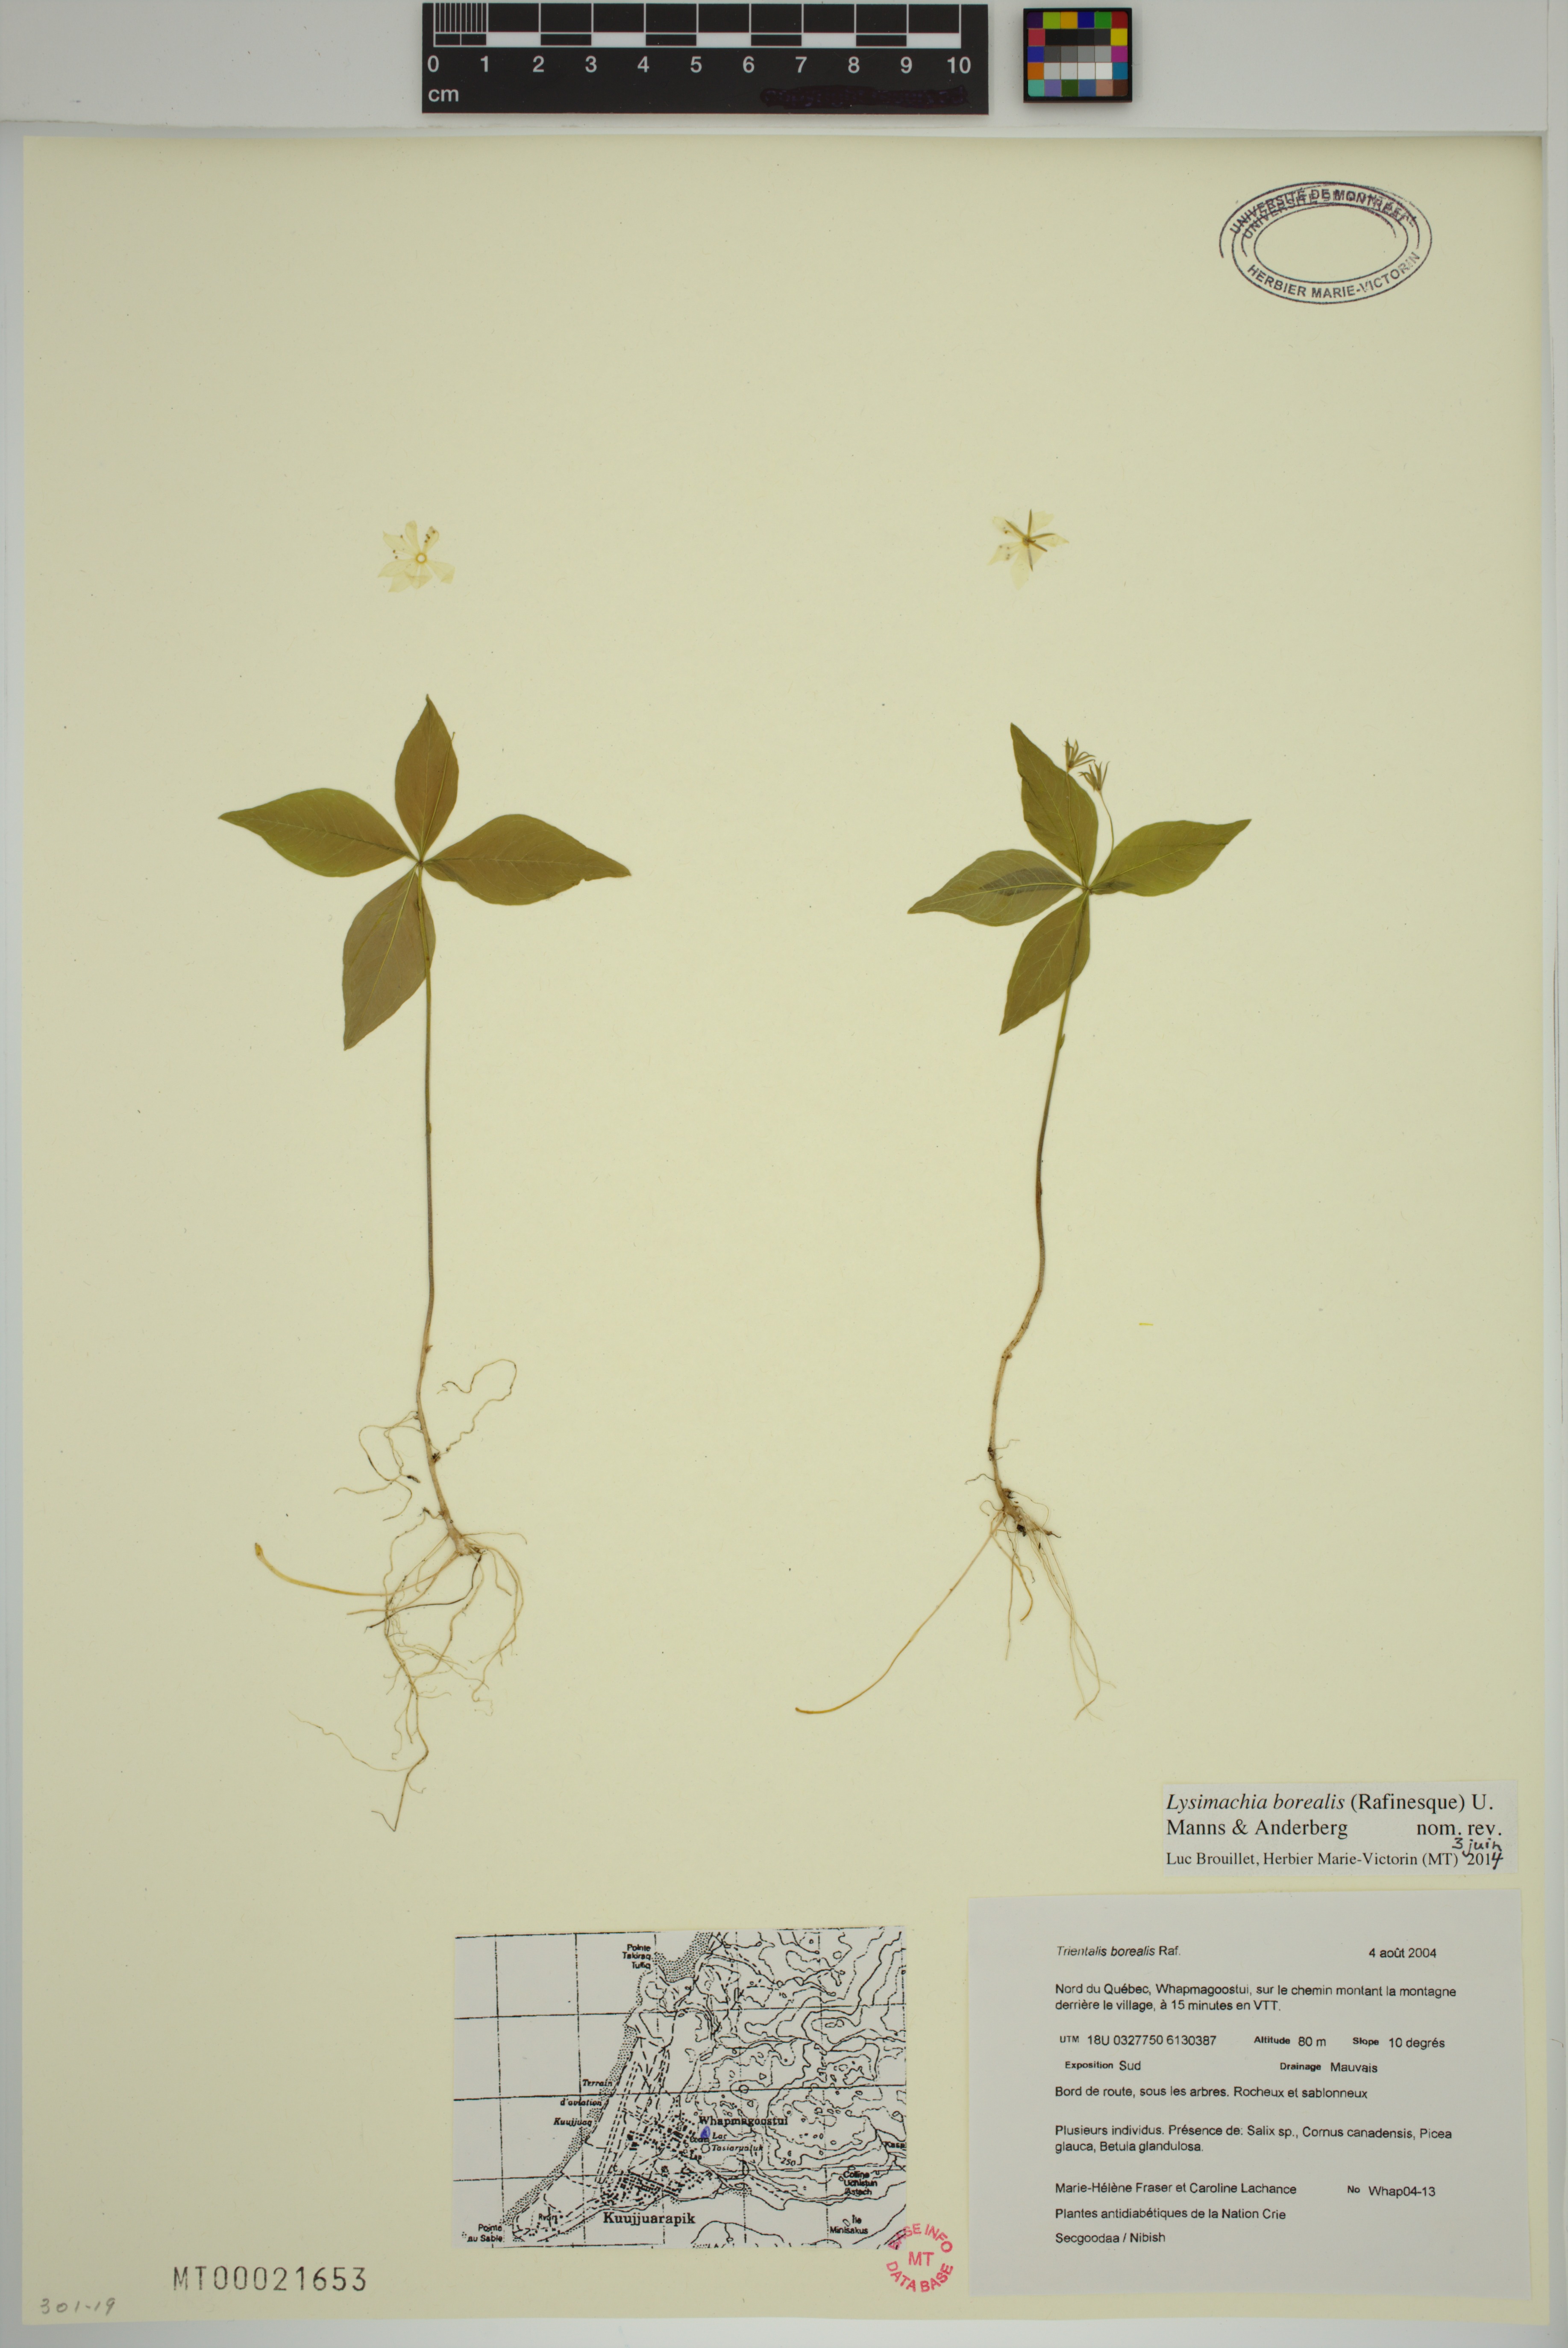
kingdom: Plantae
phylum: Tracheophyta
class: Magnoliopsida
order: Ericales
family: Primulaceae
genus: Lysimachia
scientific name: Lysimachia borealis
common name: American starflower
